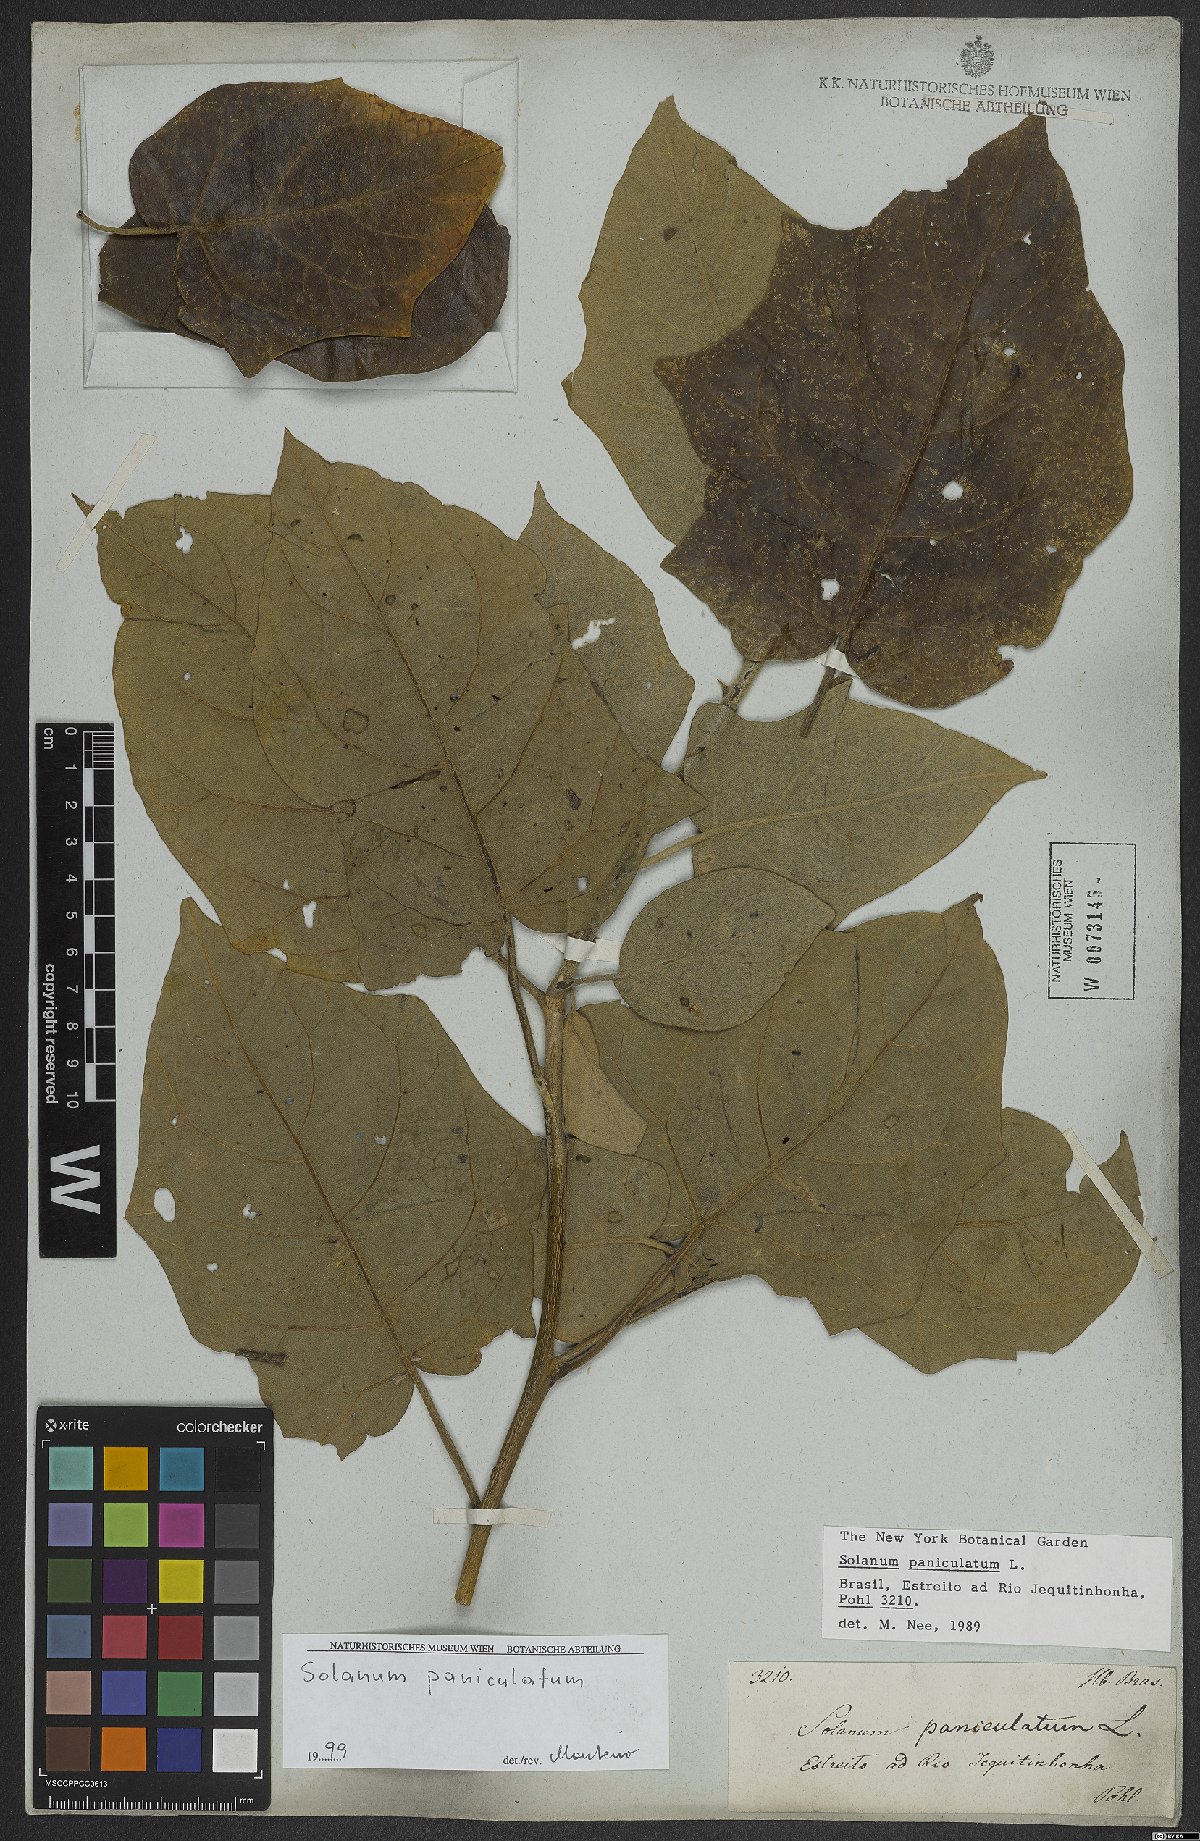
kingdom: Plantae
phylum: Tracheophyta
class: Magnoliopsida
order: Solanales
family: Solanaceae
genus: Solanum
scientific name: Solanum paniculatum
